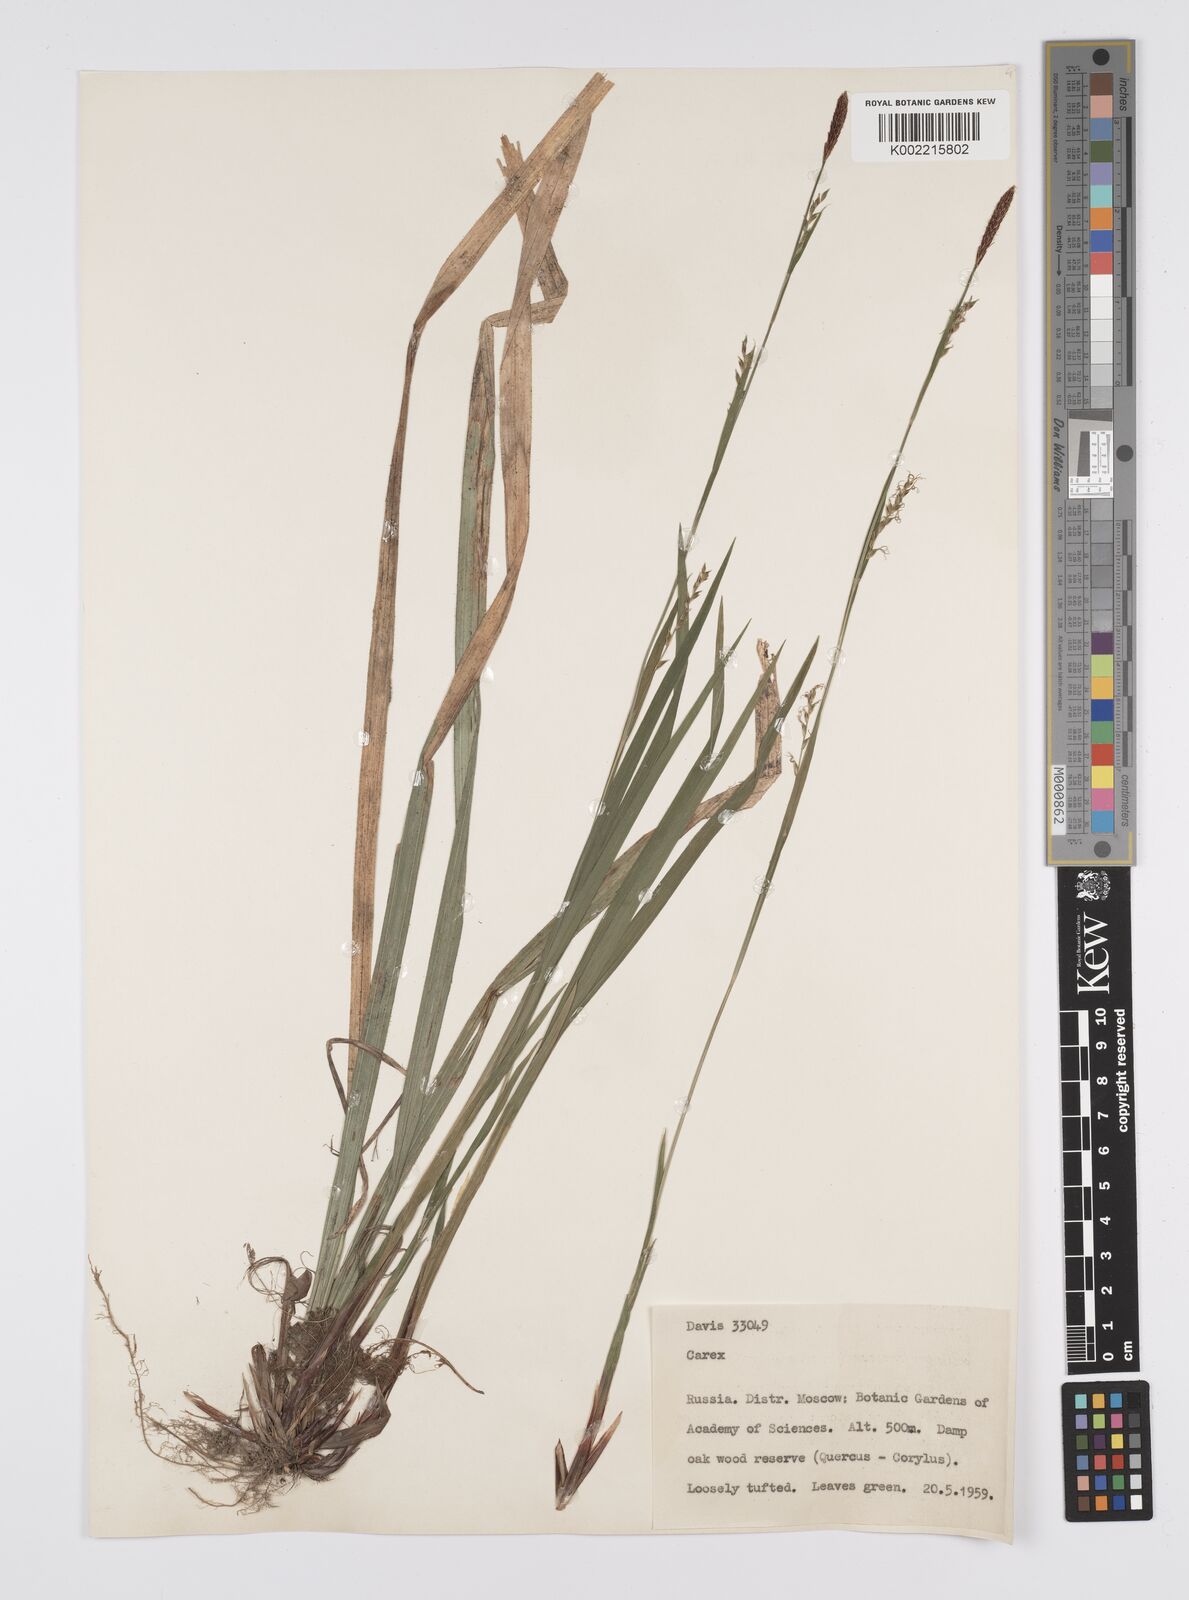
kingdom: Plantae
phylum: Tracheophyta
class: Liliopsida
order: Poales
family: Cyperaceae
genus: Carex
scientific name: Carex
